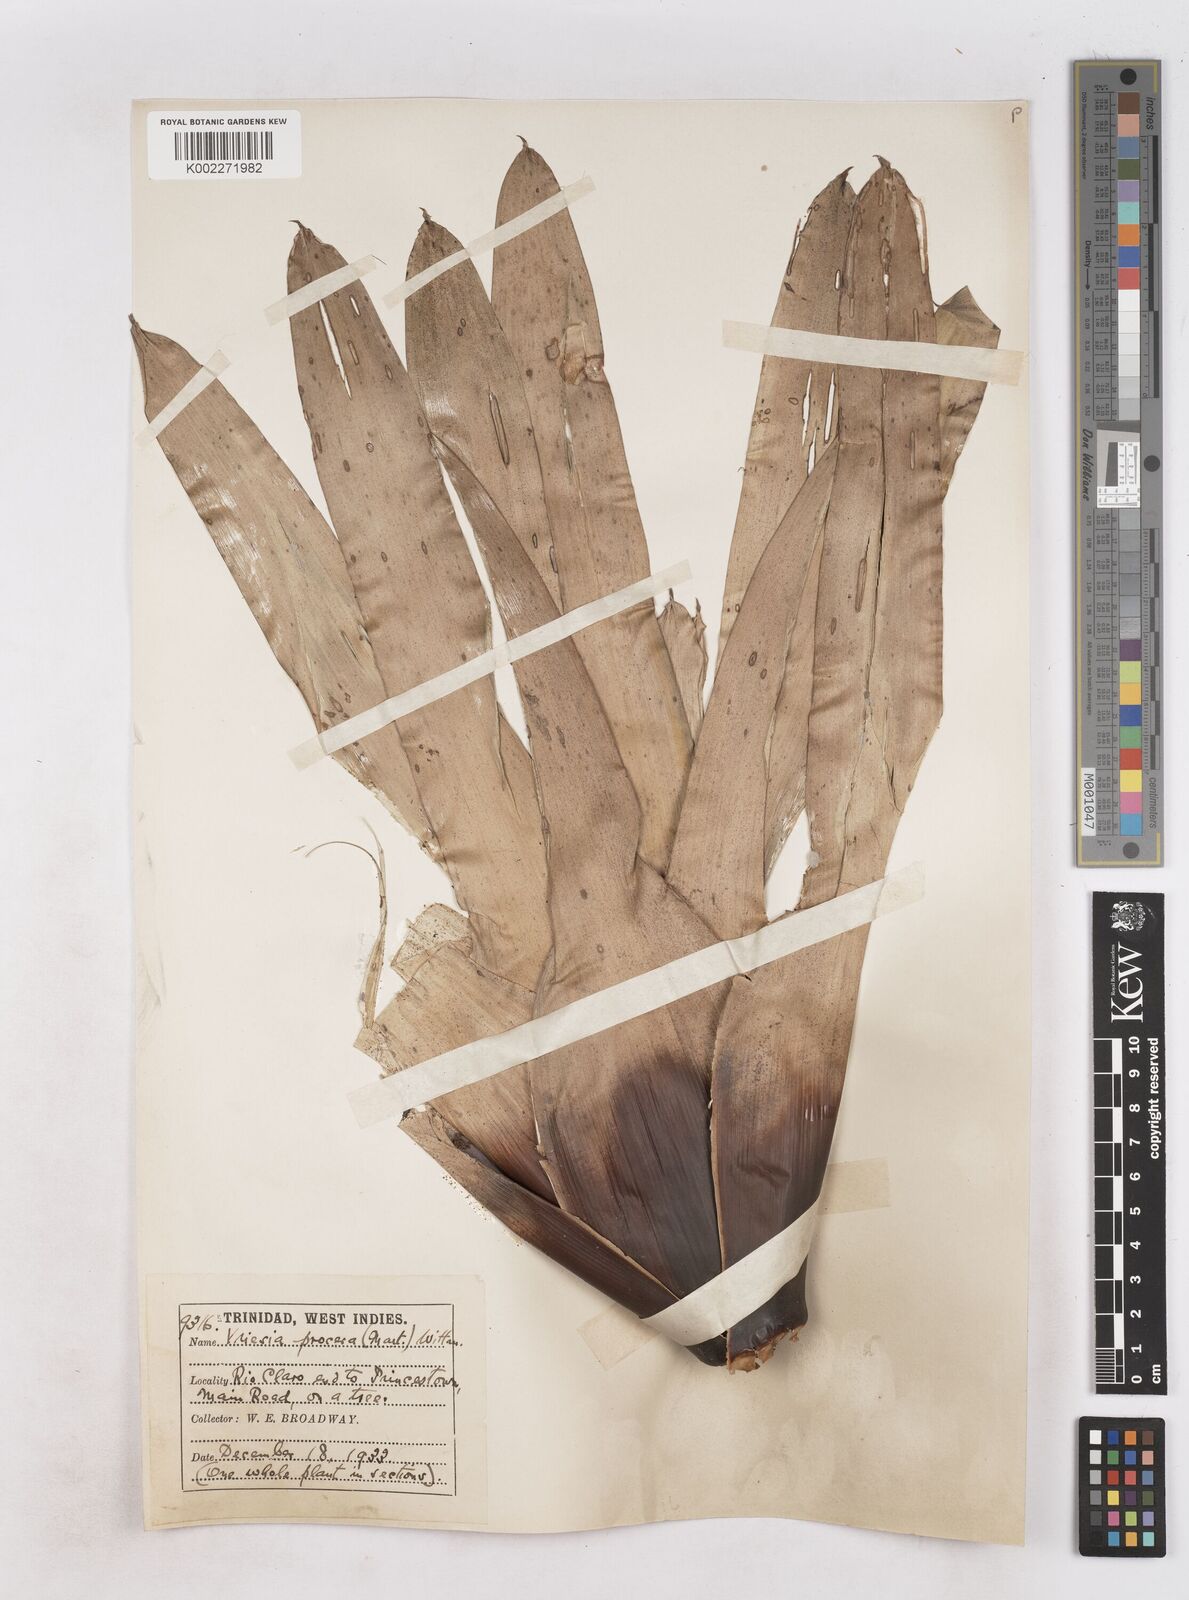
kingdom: Plantae
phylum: Tracheophyta
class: Liliopsida
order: Poales
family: Bromeliaceae
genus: Vriesea
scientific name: Vriesea procera
